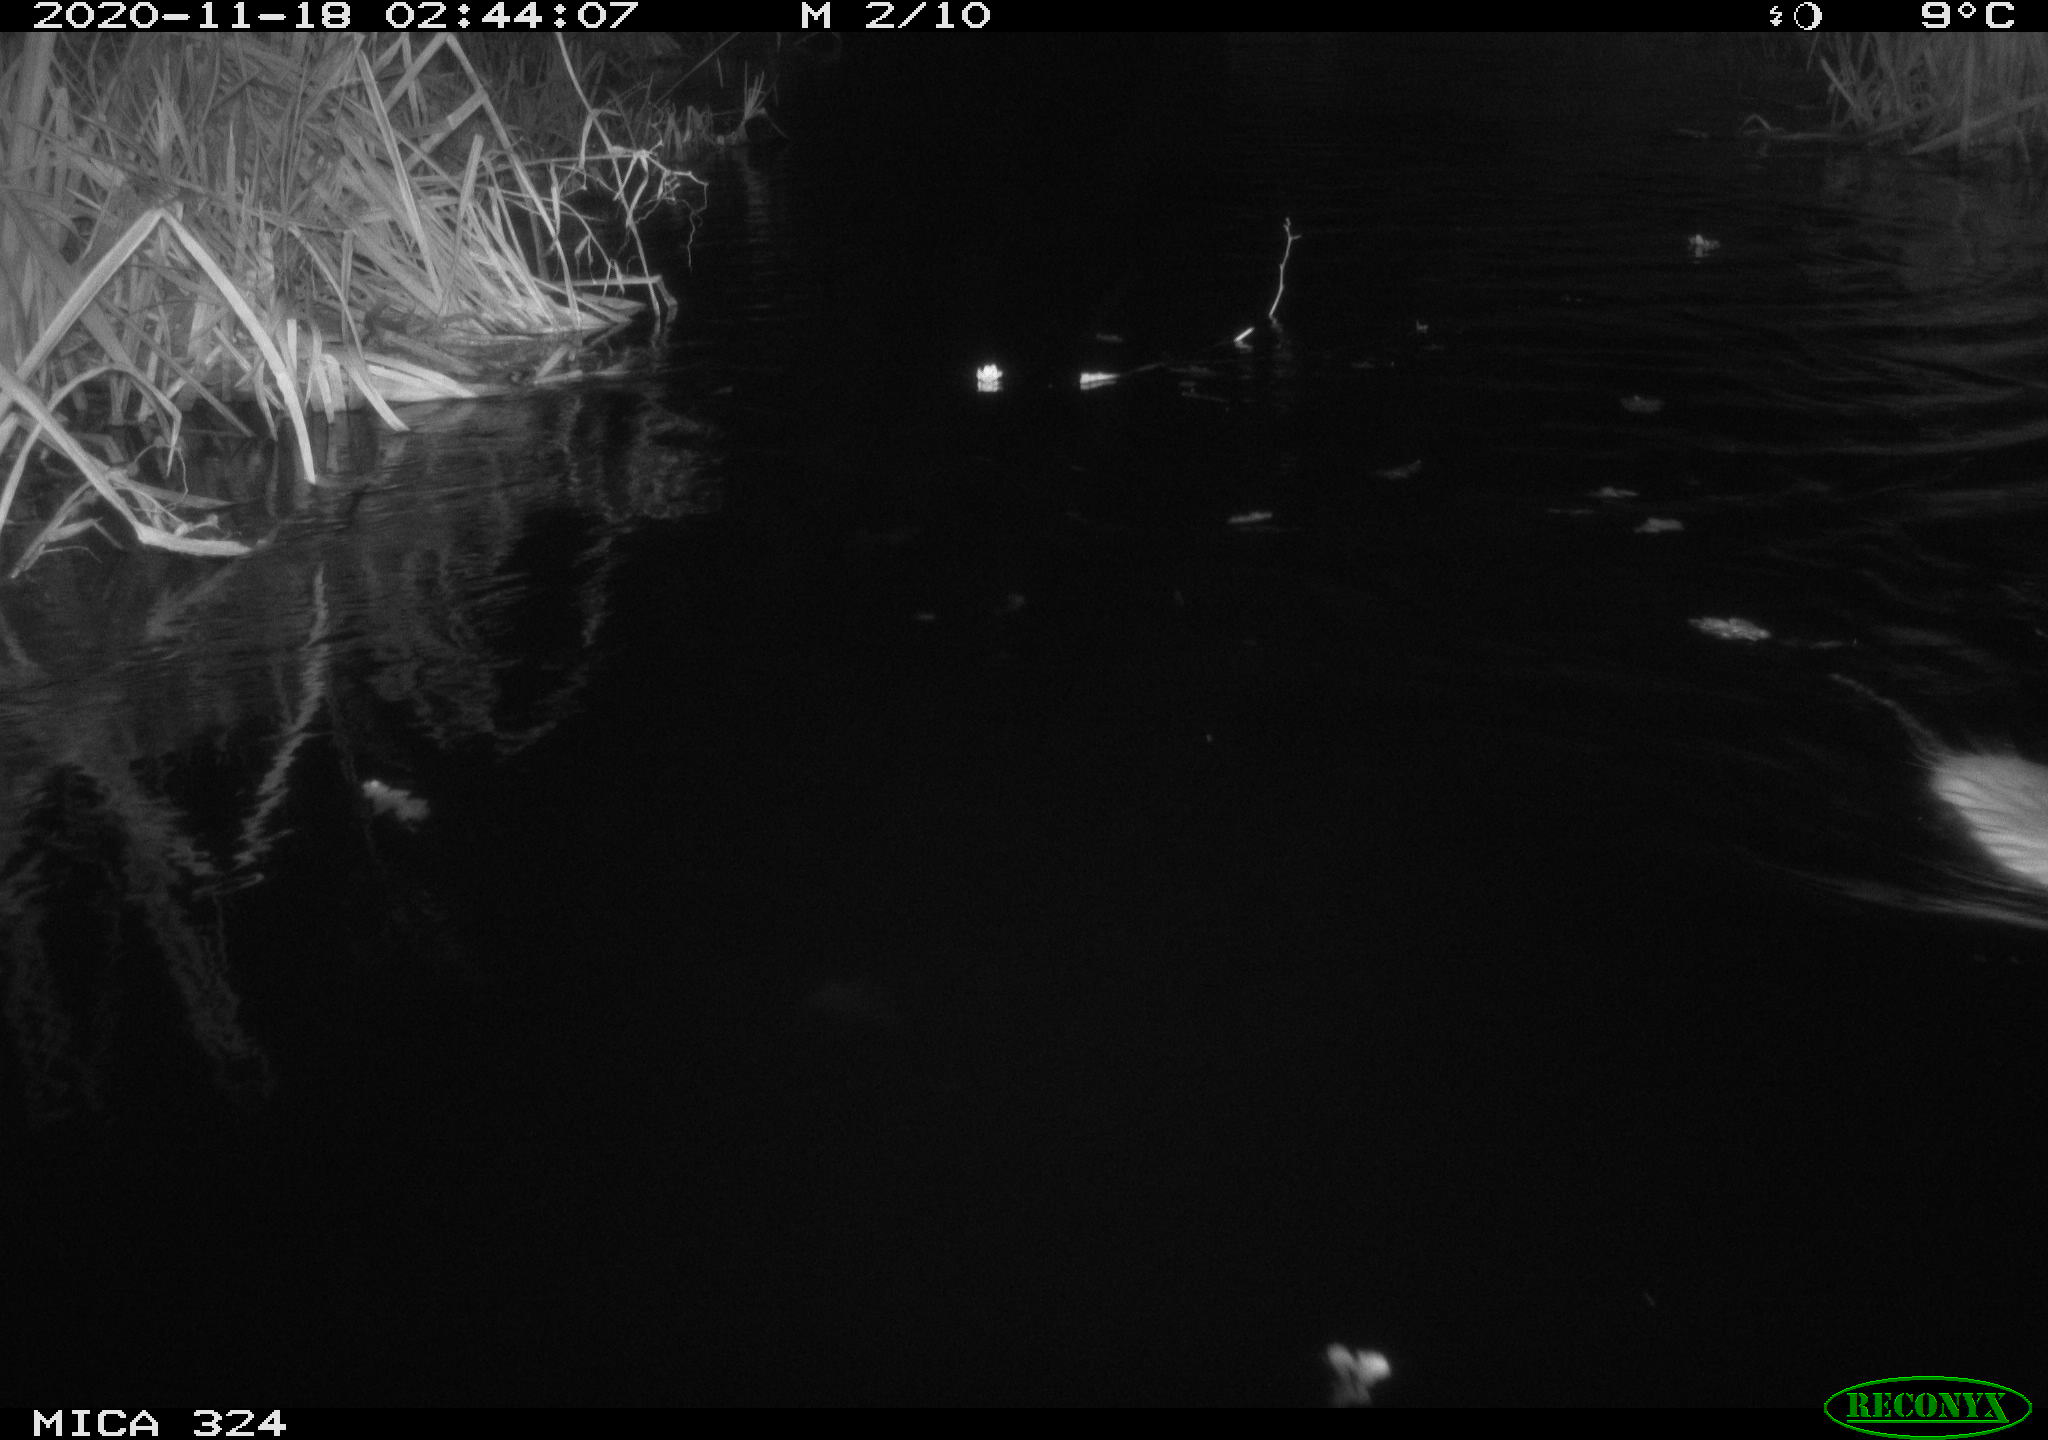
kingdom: Animalia
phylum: Chordata
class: Mammalia
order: Rodentia
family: Myocastoridae
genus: Myocastor
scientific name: Myocastor coypus
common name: Coypu
